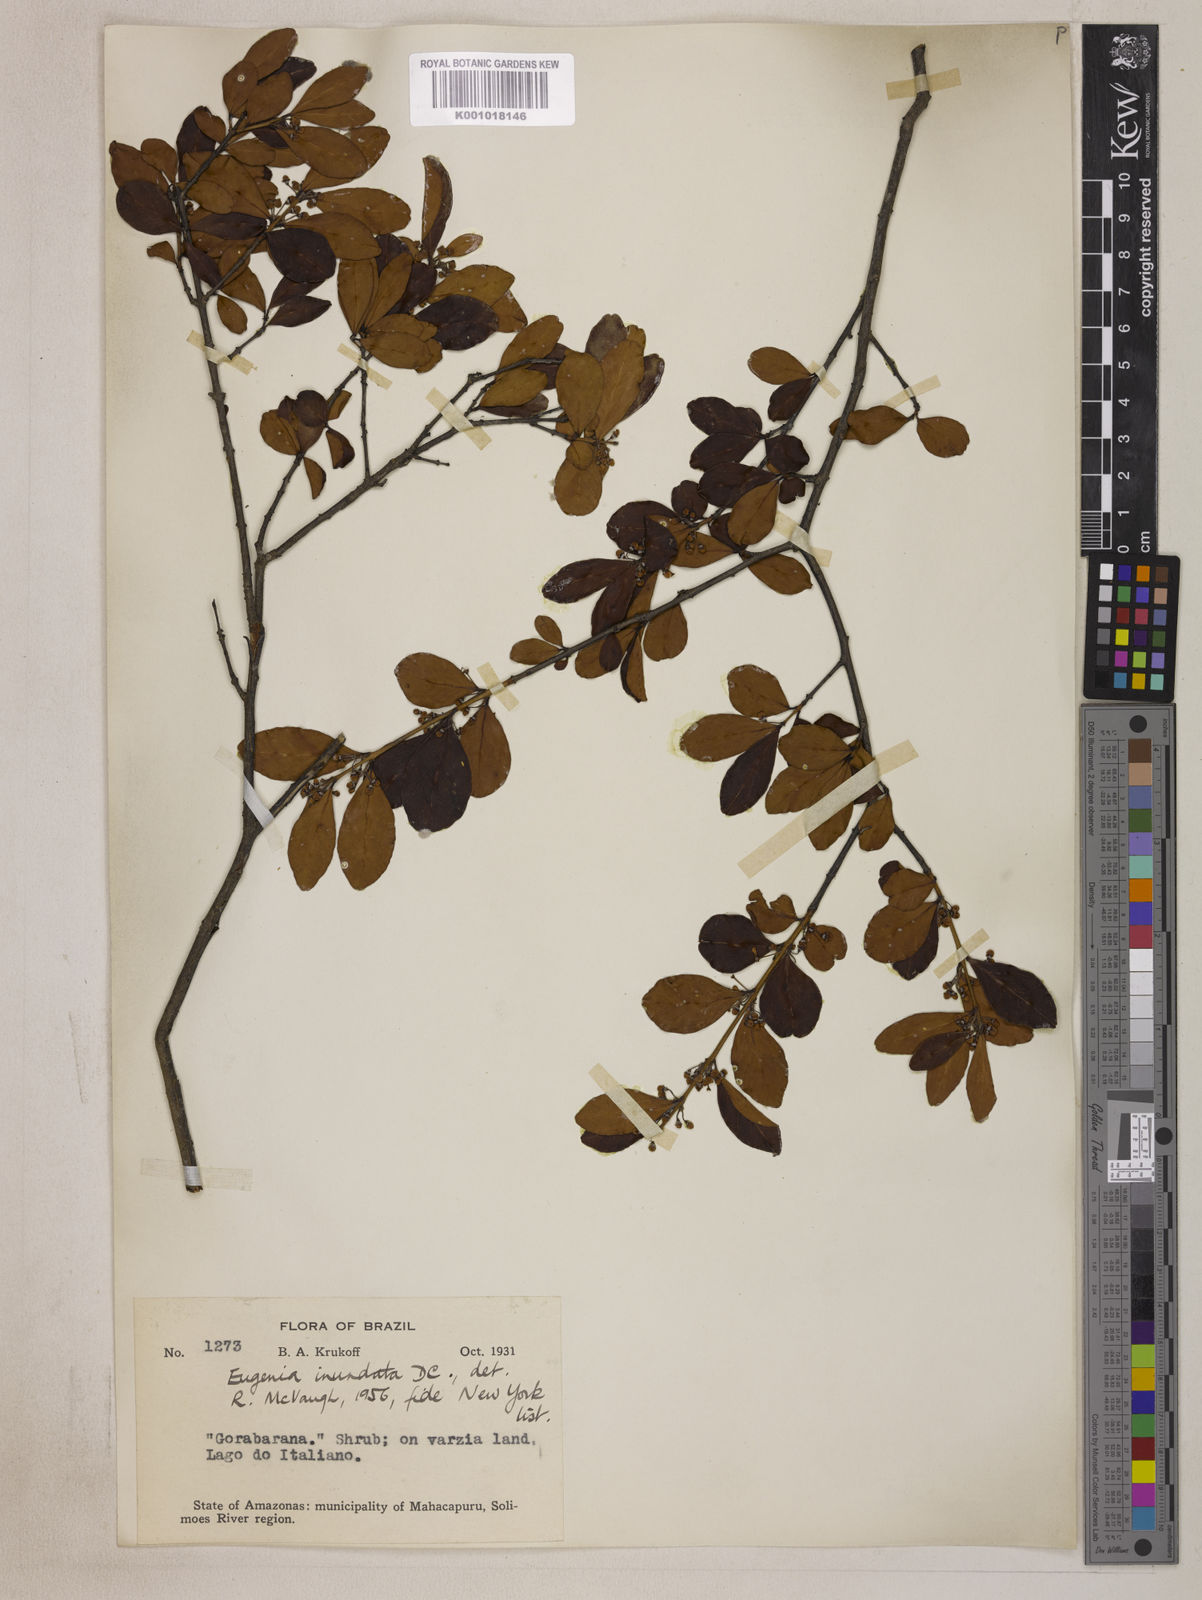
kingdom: Plantae
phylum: Tracheophyta
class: Magnoliopsida
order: Myrtales
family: Myrtaceae
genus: Eugenia
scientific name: Eugenia inundata
